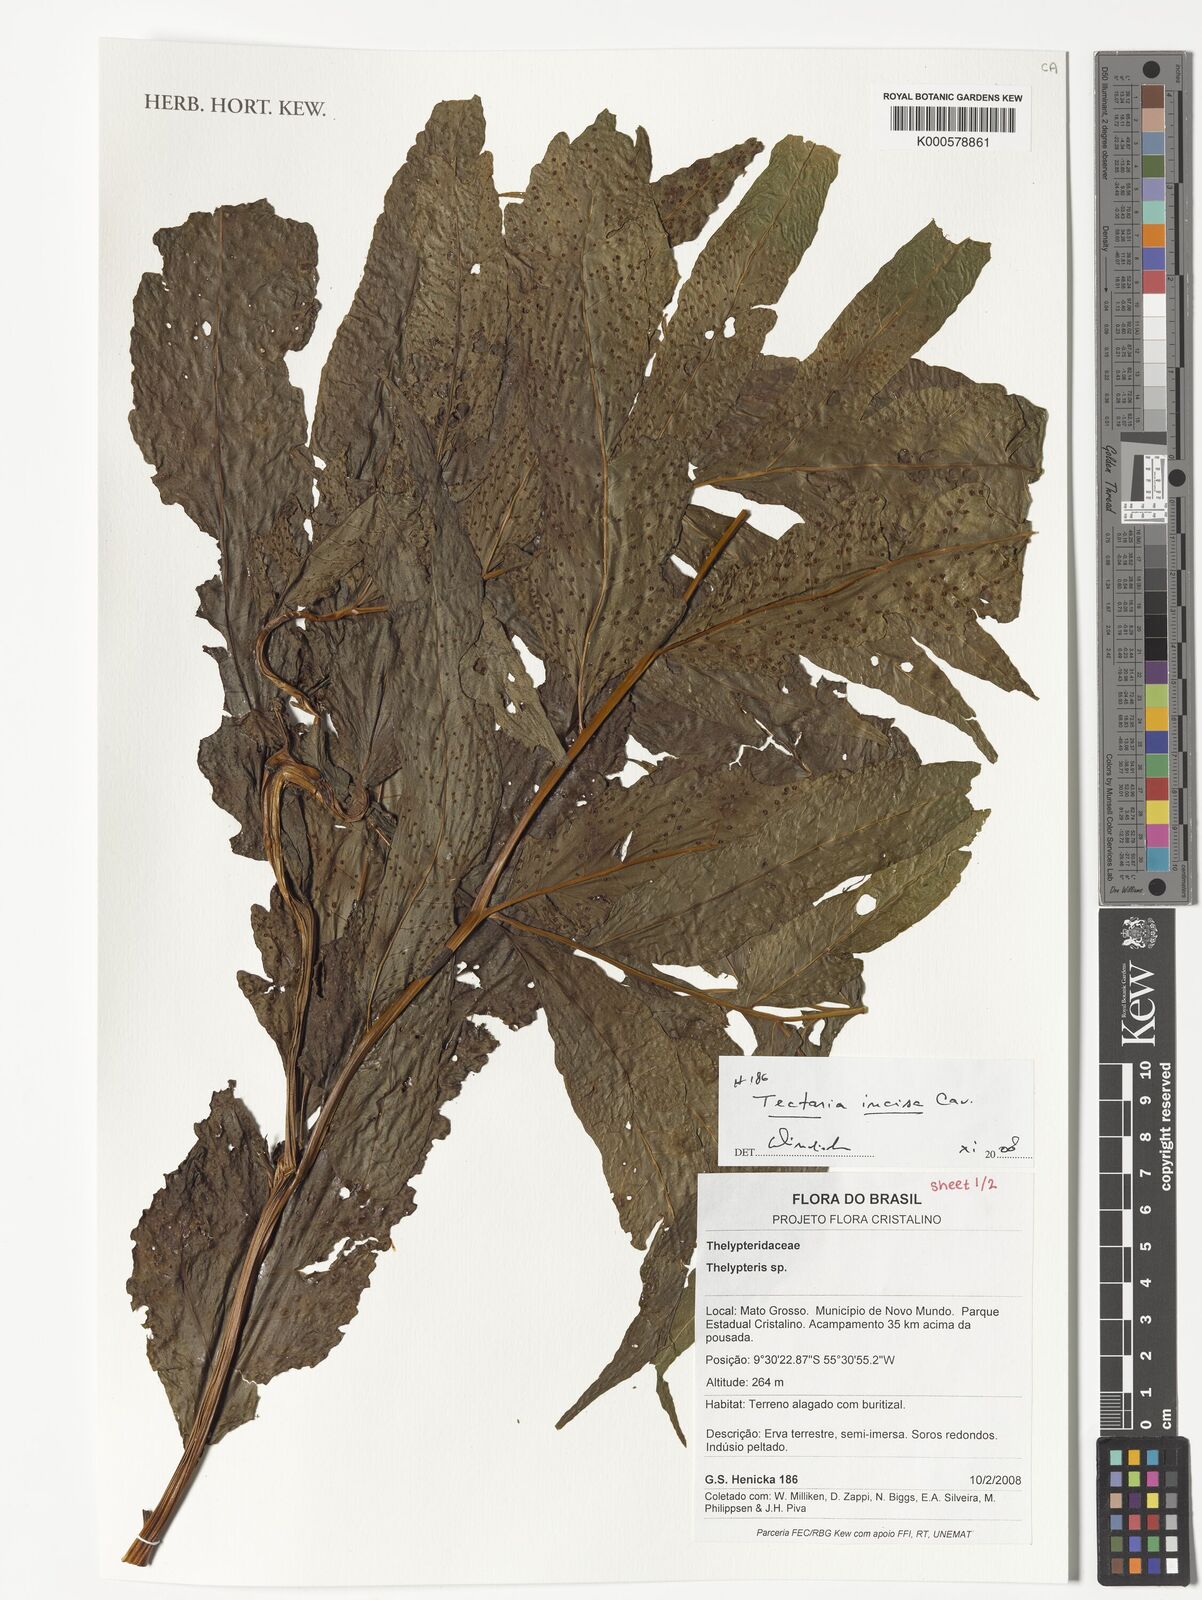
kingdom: Plantae
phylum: Tracheophyta
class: Polypodiopsida
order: Polypodiales
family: Tectariaceae
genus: Tectaria
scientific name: Tectaria incisa
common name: Incised halberd fern
